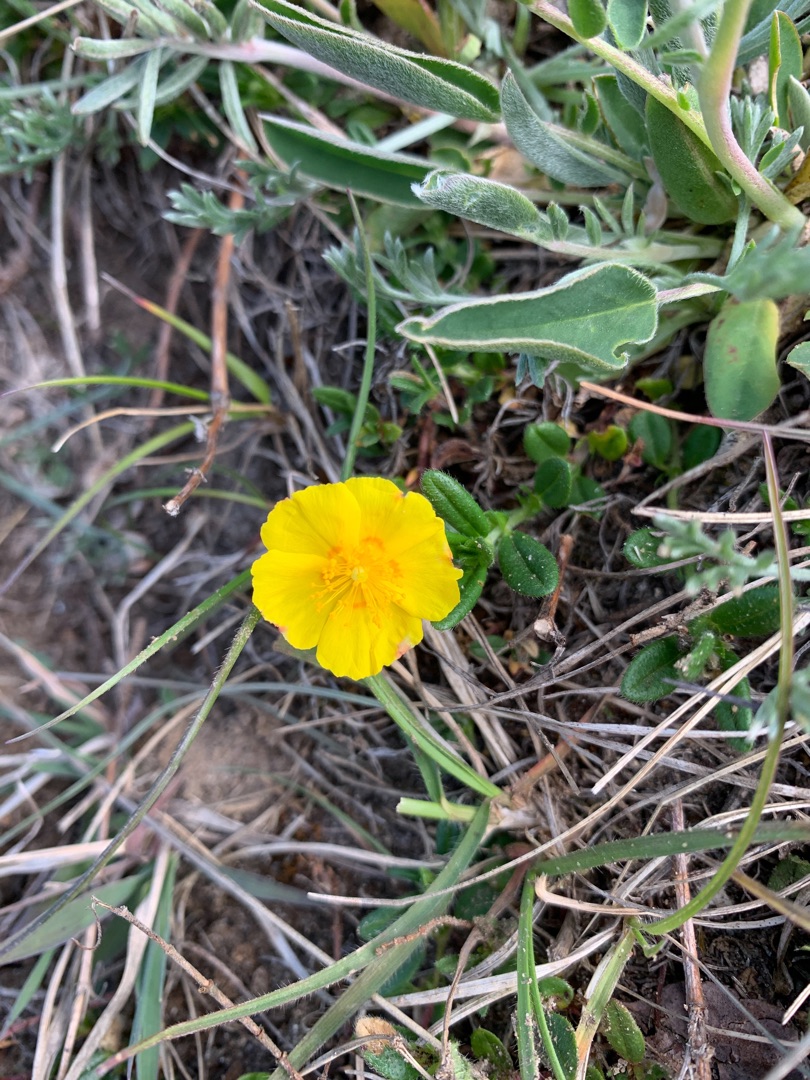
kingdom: Plantae
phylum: Tracheophyta
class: Magnoliopsida
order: Malvales
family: Cistaceae
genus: Helianthemum
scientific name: Helianthemum nummularium
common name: Soløje
